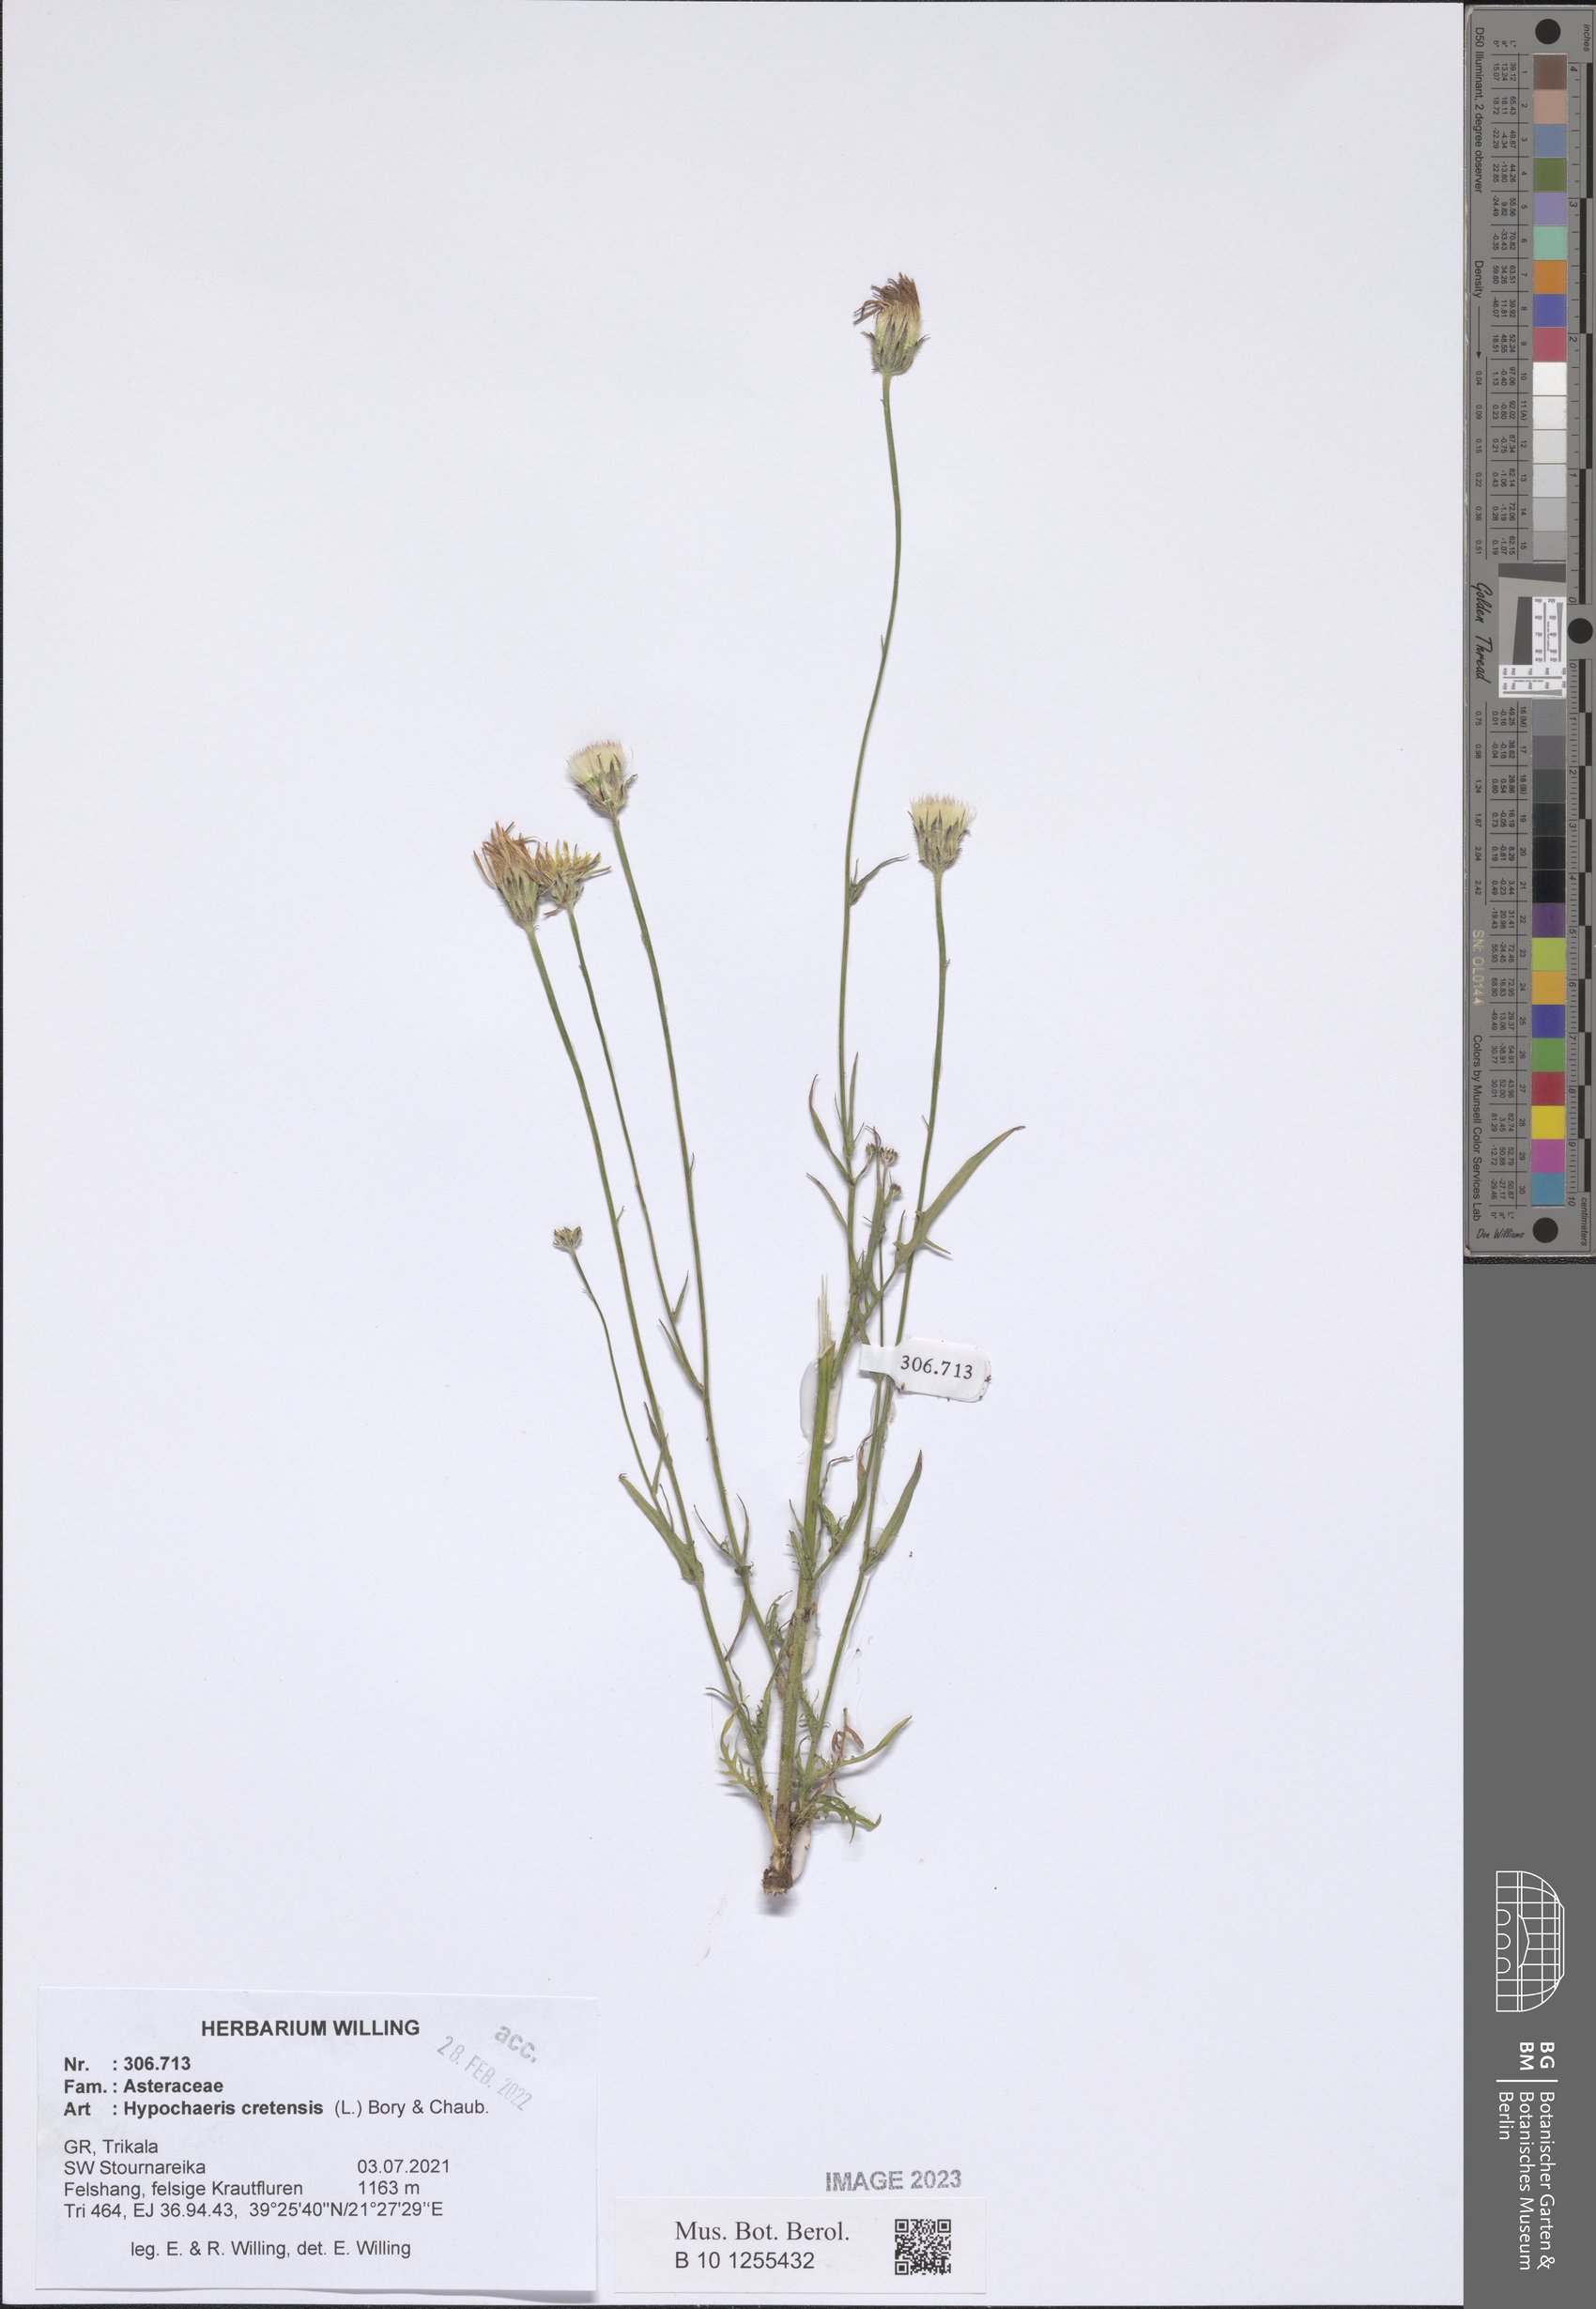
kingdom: Plantae
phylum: Tracheophyta
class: Magnoliopsida
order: Asterales
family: Asteraceae
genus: Hypochaeris
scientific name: Hypochaeris cretensis
